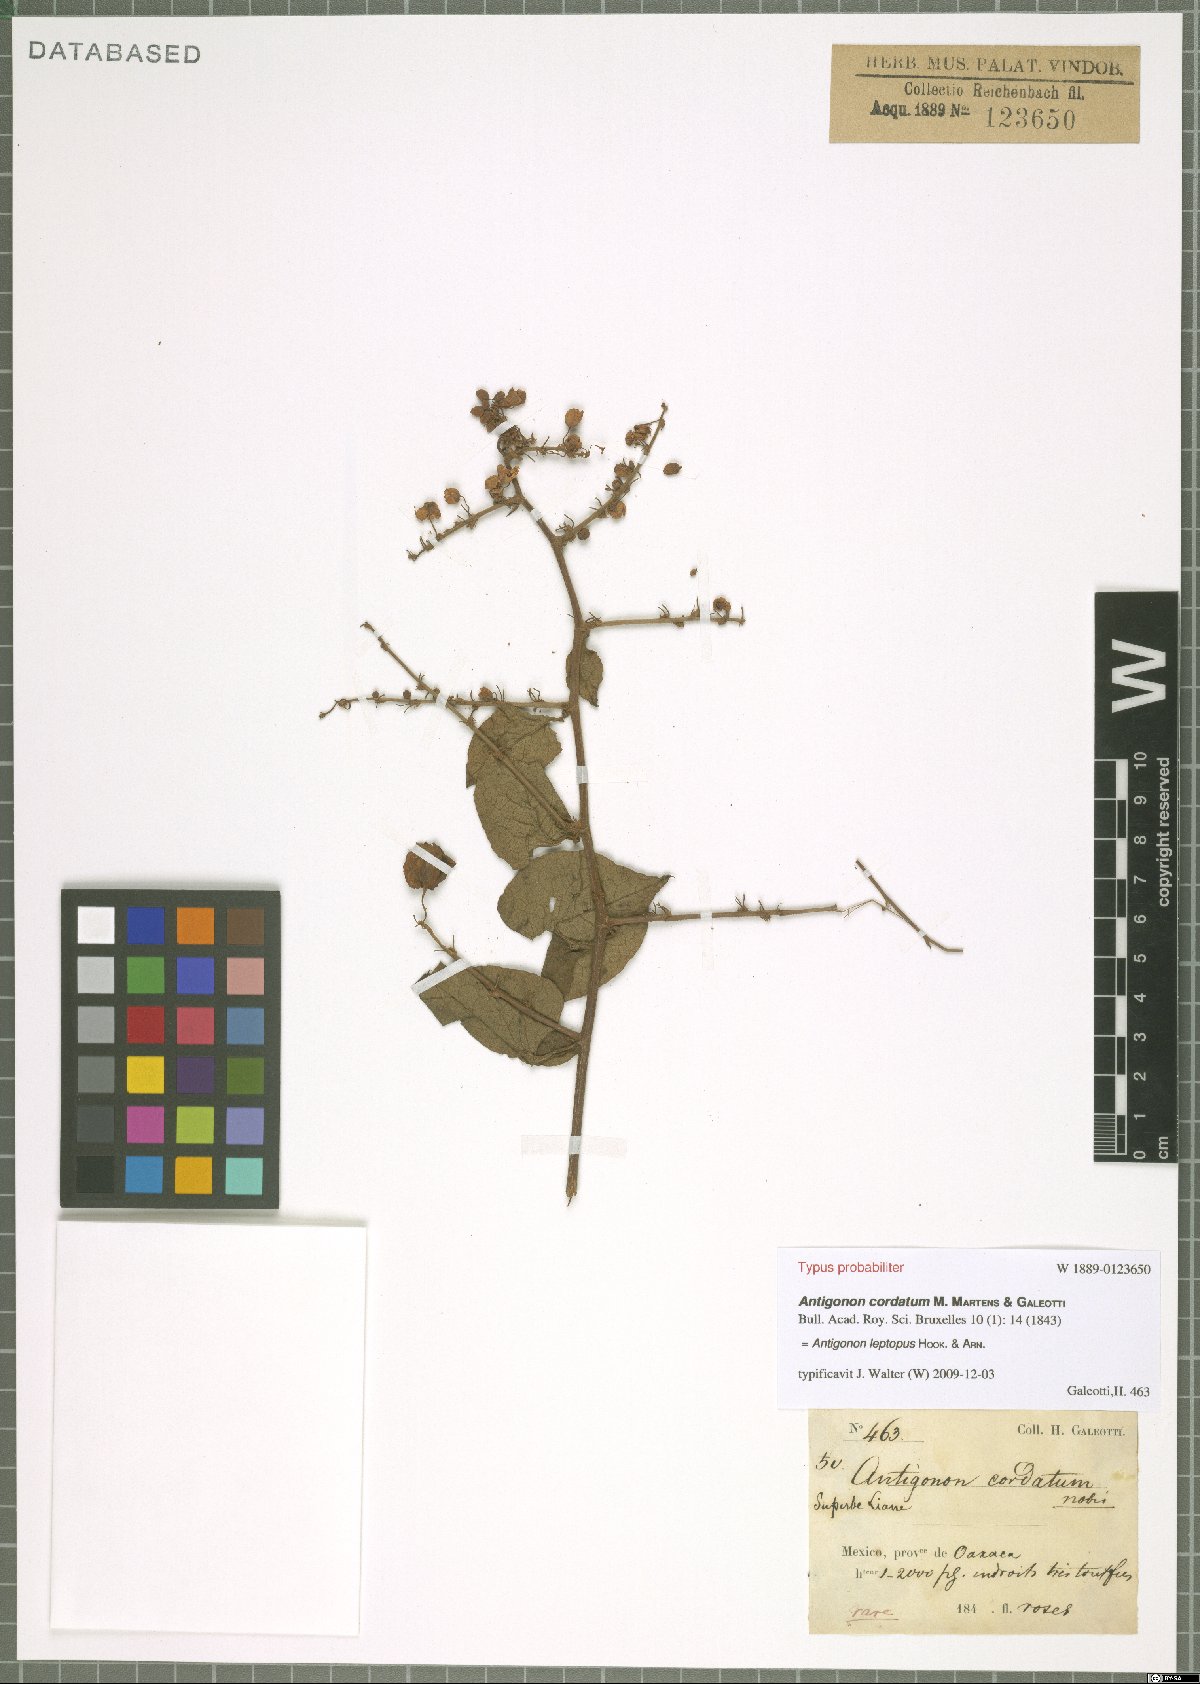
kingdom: Plantae
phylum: Tracheophyta
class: Magnoliopsida
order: Caryophyllales
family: Polygonaceae
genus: Antigonon
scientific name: Antigonon leptopus
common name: Coral vine
